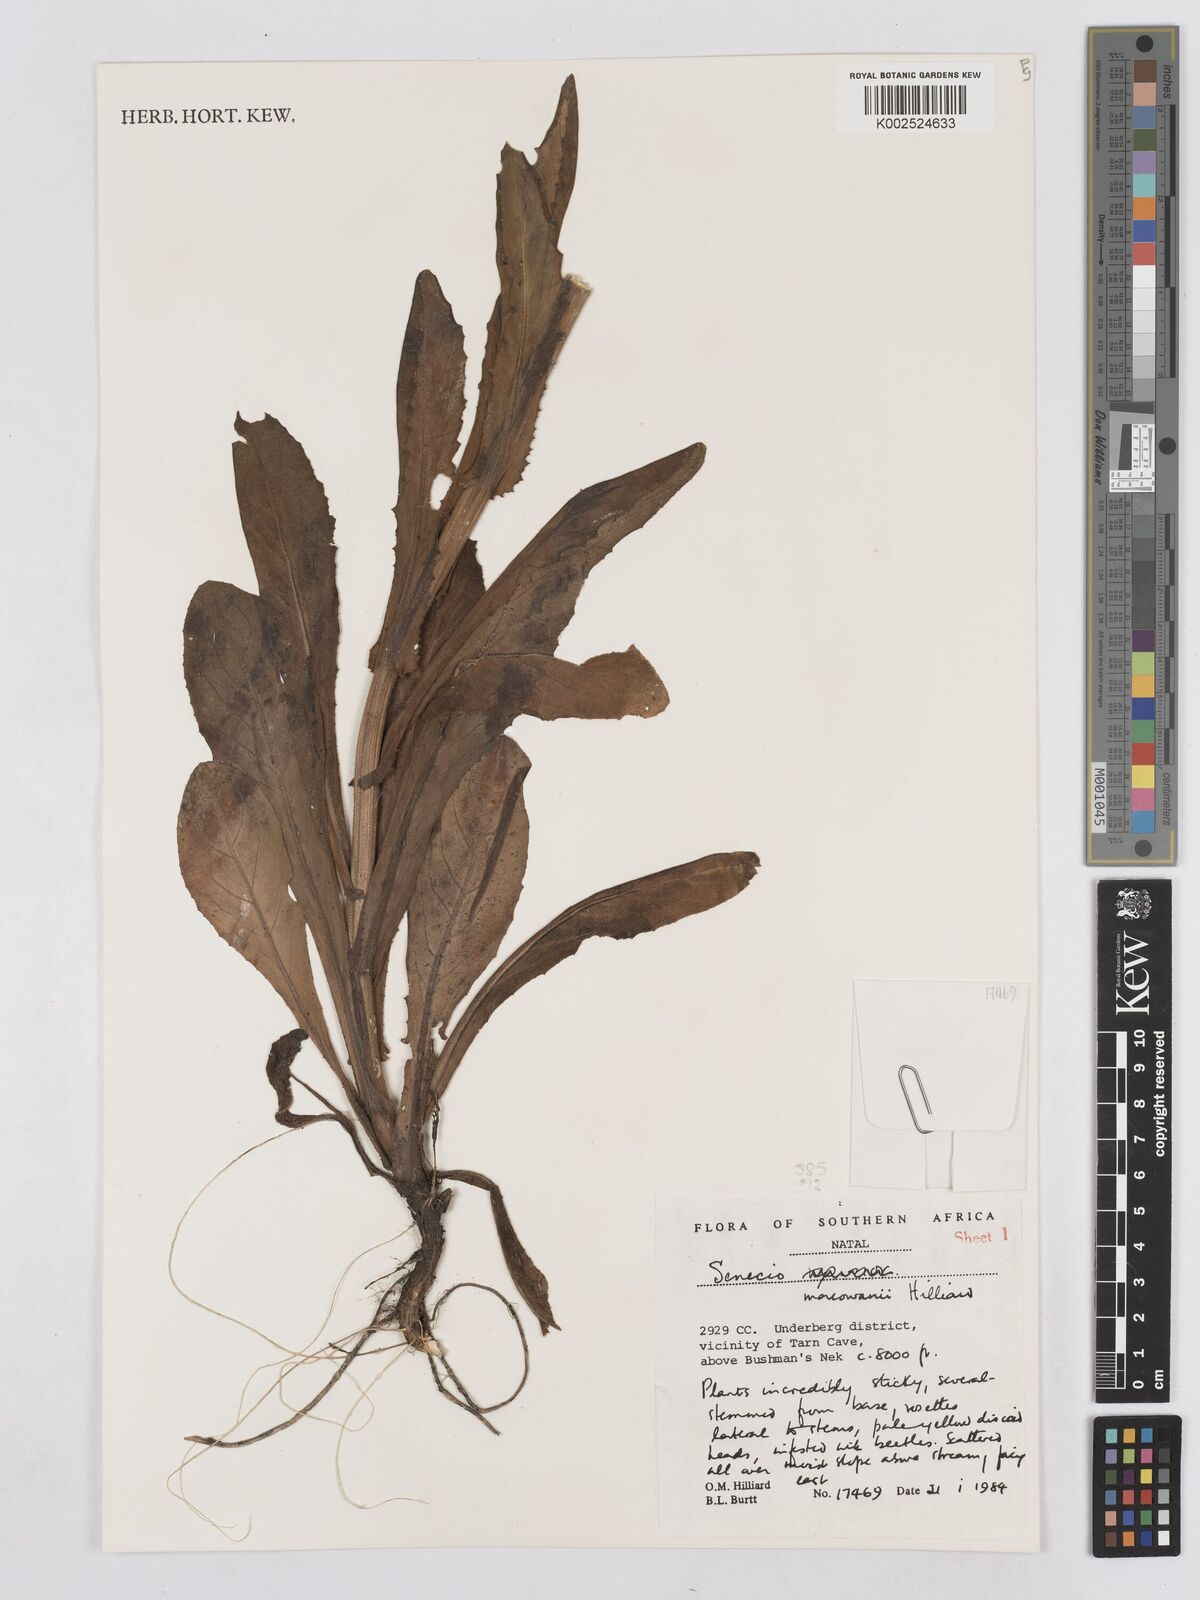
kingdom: Plantae
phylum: Tracheophyta
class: Magnoliopsida
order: Asterales
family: Asteraceae
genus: Senecio
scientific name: Senecio macowanii
